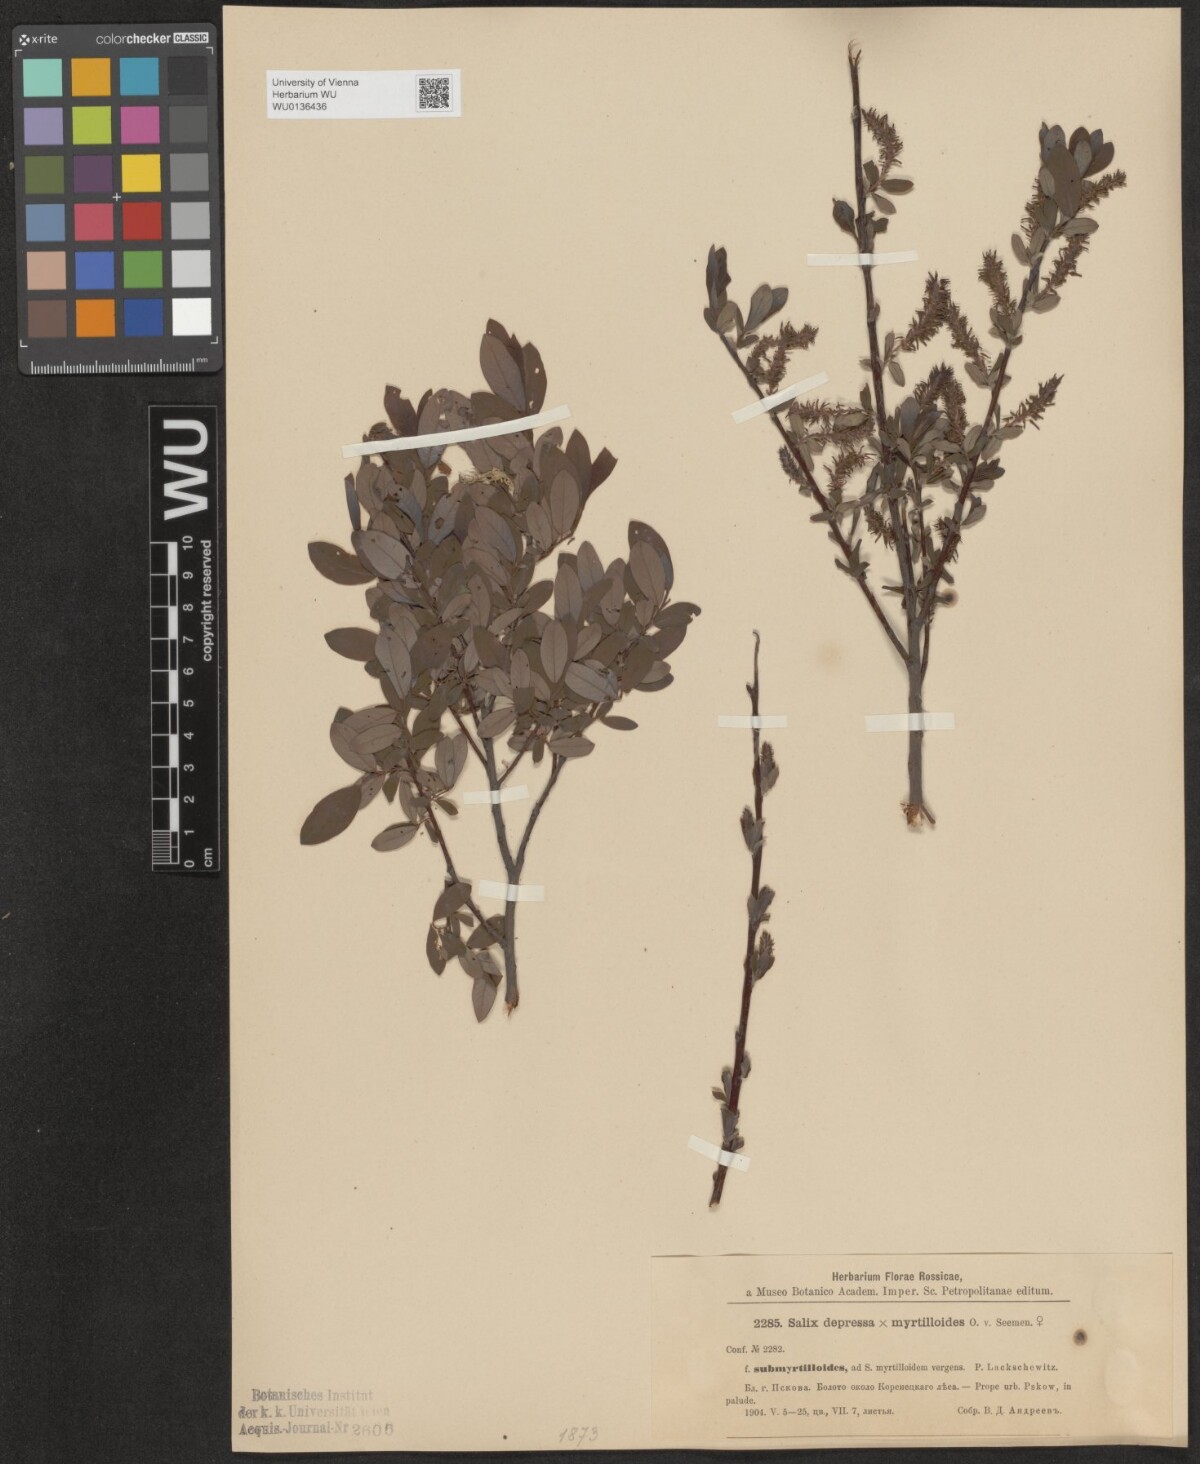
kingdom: Plantae
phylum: Tracheophyta
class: Magnoliopsida
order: Malpighiales
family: Salicaceae
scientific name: Salicaceae
